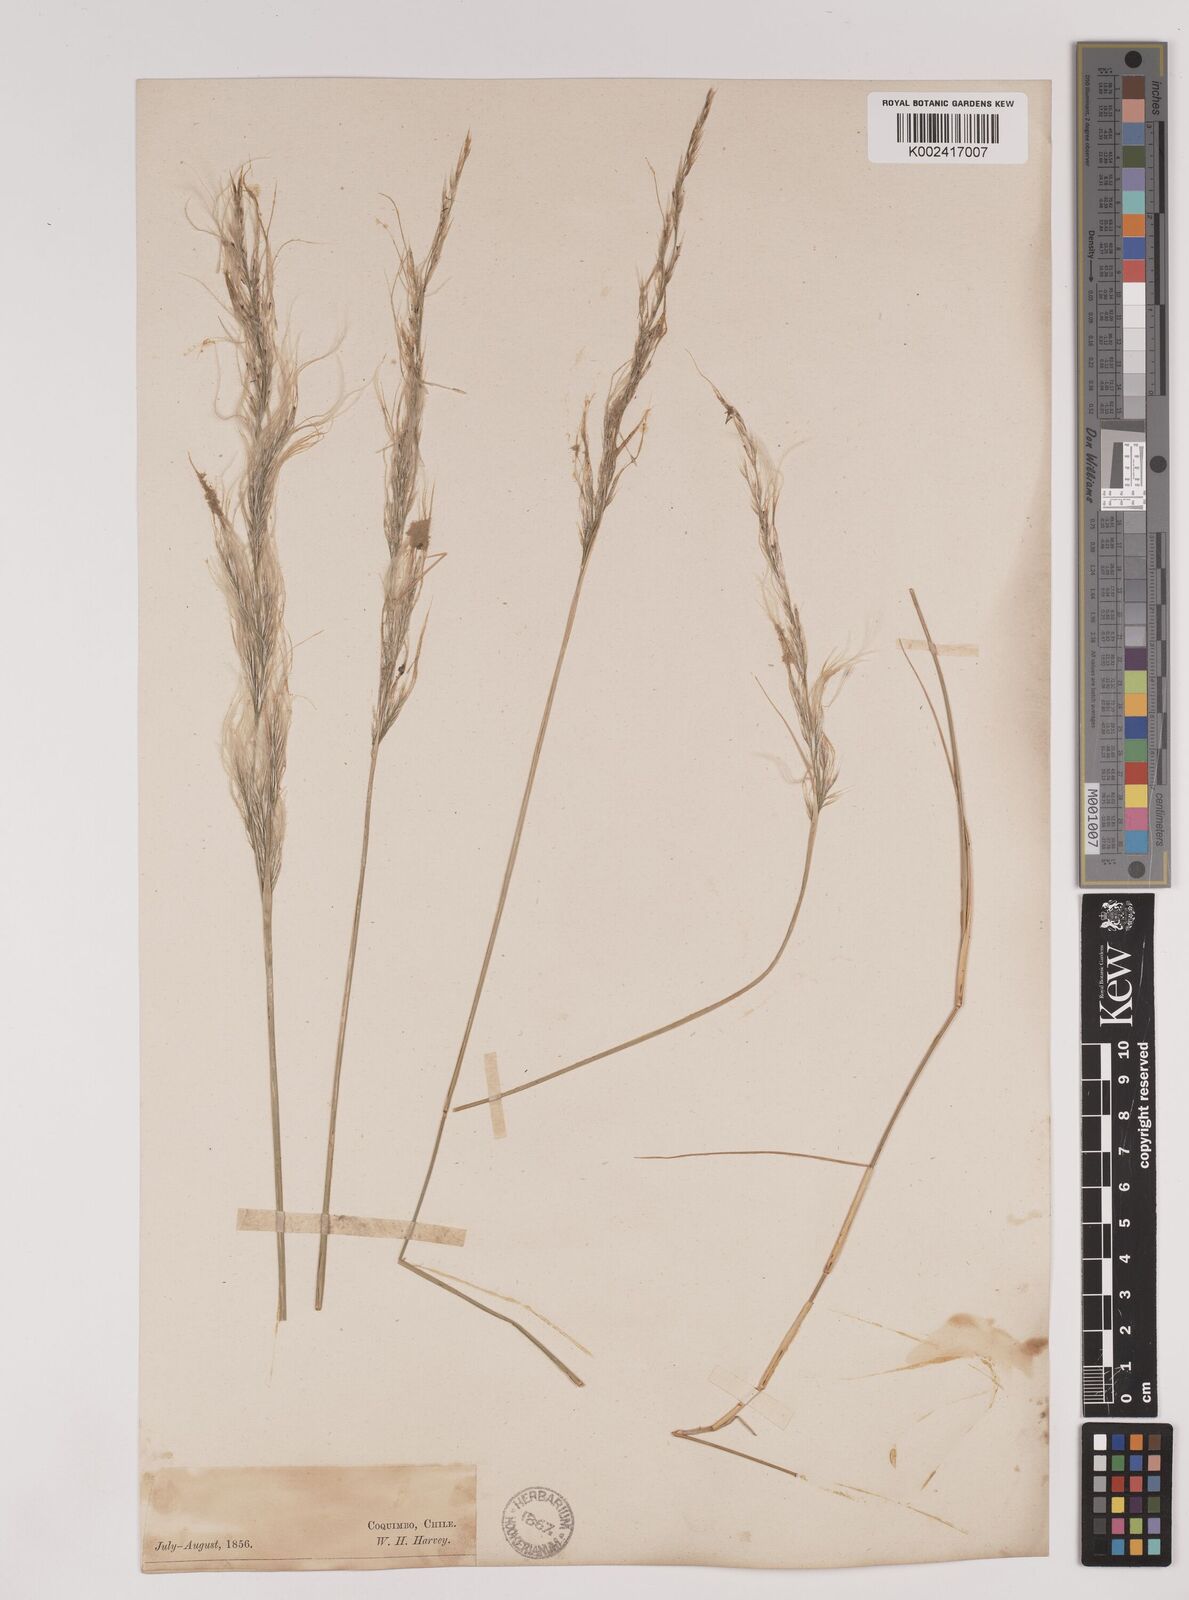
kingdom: Plantae
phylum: Tracheophyta
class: Liliopsida
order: Poales
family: Poaceae
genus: Stipa
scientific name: Stipa plumosa
